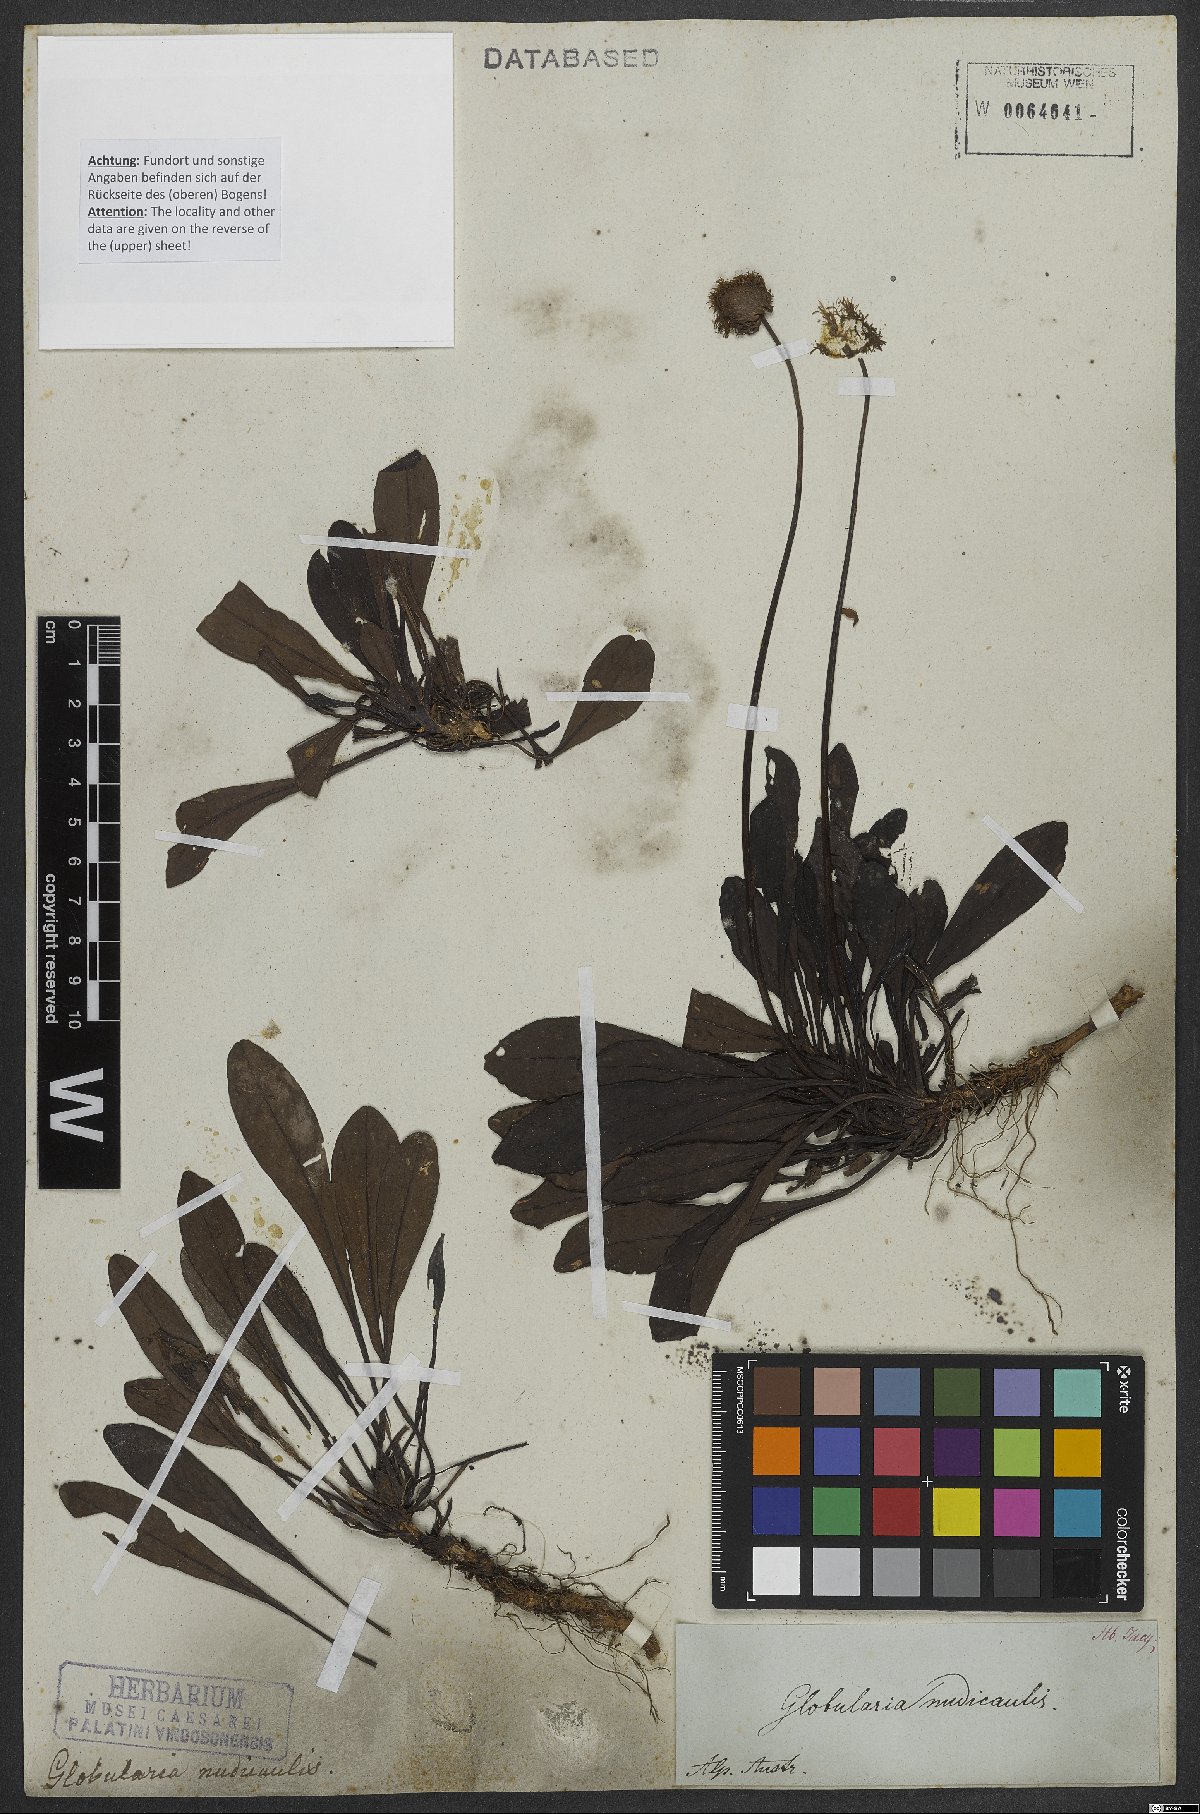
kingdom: Plantae
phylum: Tracheophyta
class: Magnoliopsida
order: Lamiales
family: Plantaginaceae
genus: Globularia
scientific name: Globularia nudicaulis
